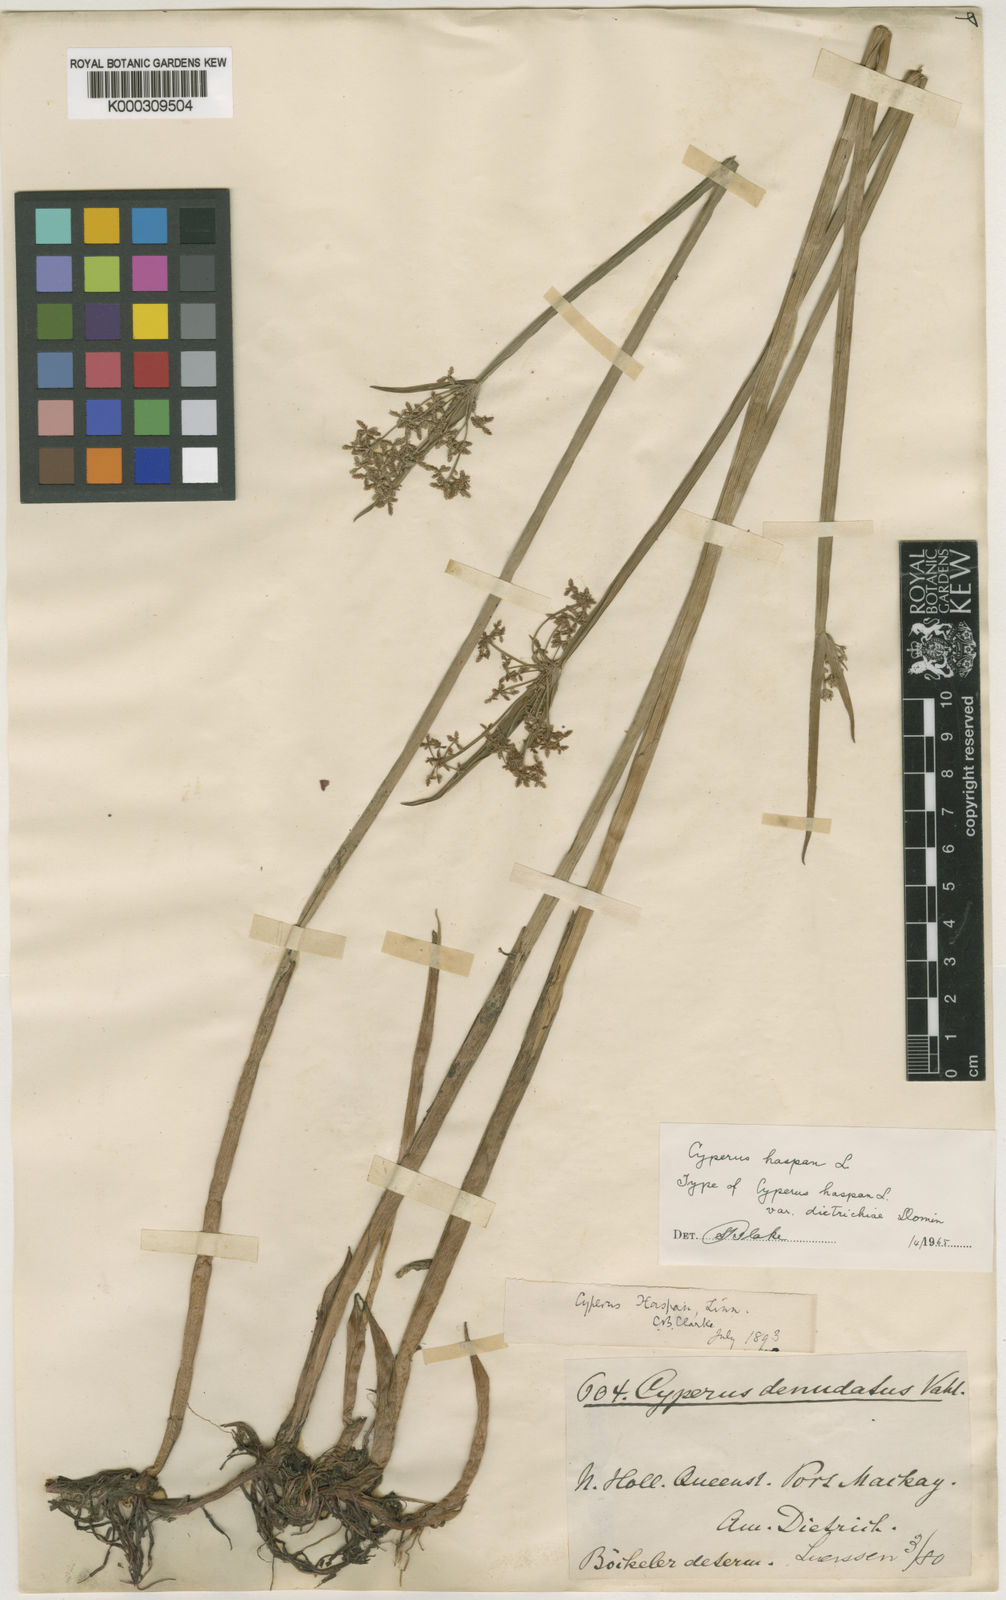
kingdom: Plantae
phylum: Tracheophyta
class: Liliopsida
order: Poales
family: Cyperaceae
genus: Cyperus
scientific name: Cyperus haspan
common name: Haspan flatsedge
